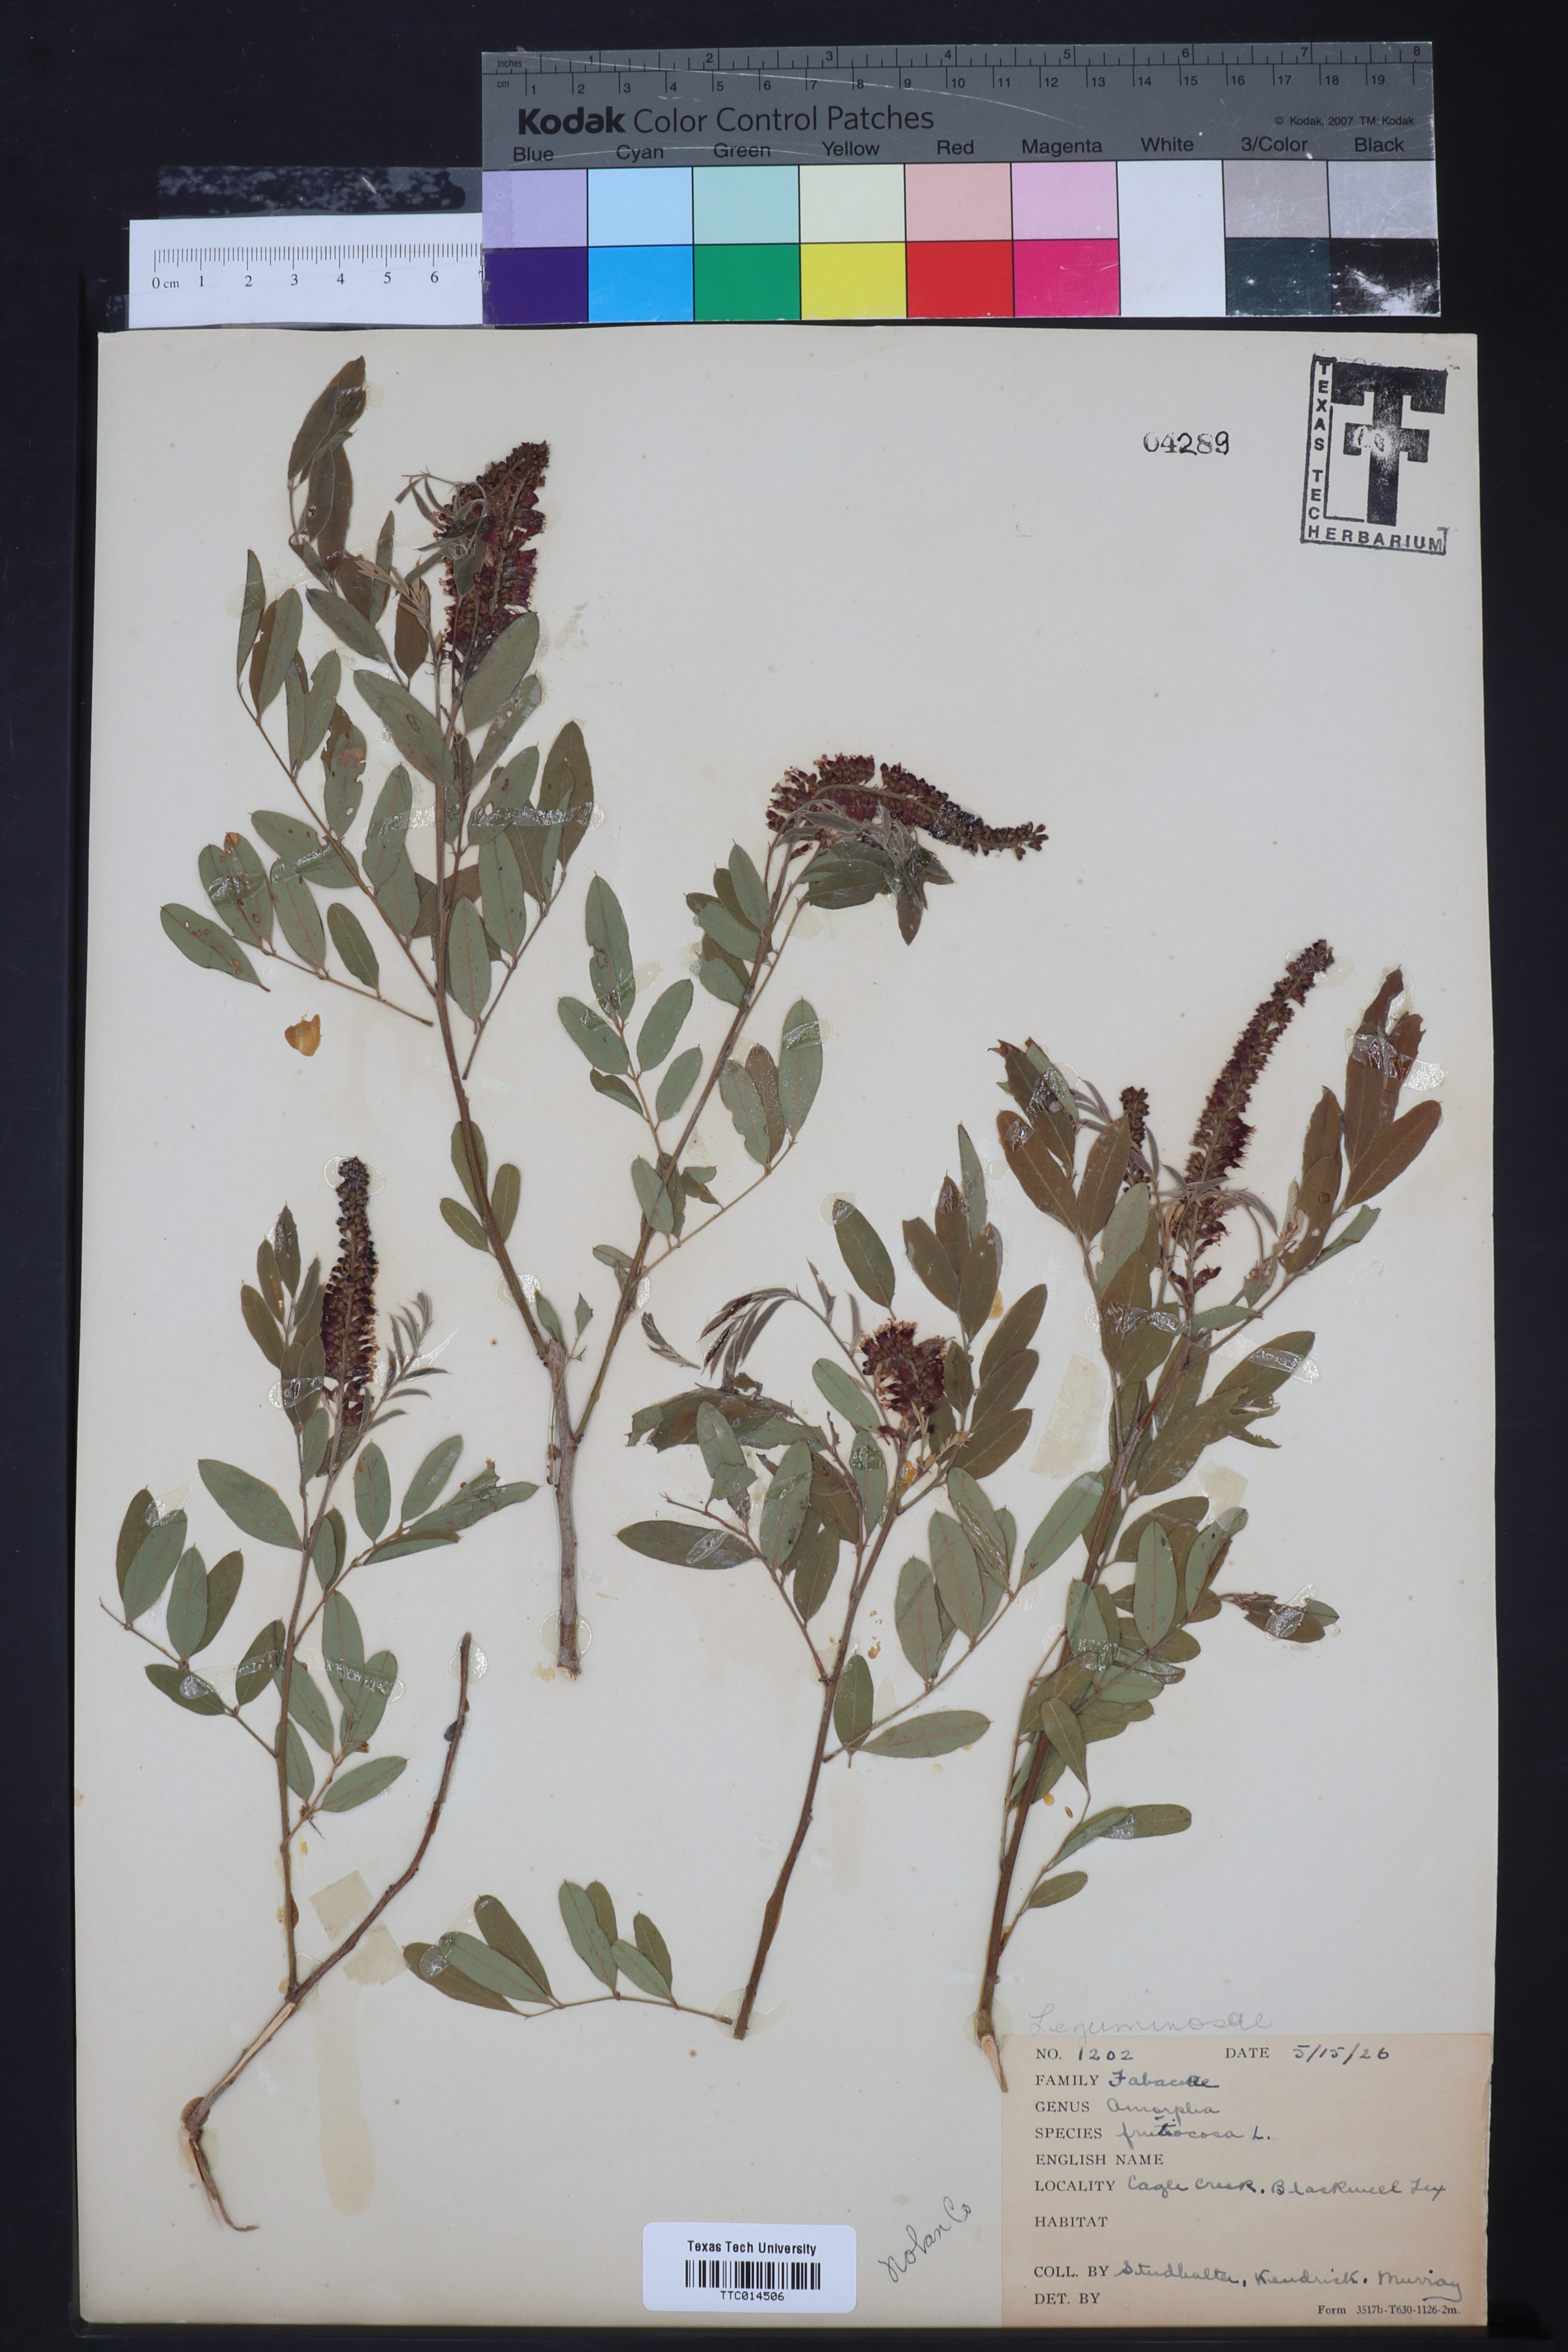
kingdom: Plantae
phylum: Tracheophyta
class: Magnoliopsida
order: Fabales
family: Fabaceae
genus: Amorpha
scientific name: Amorpha fruticosa
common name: False indigo
